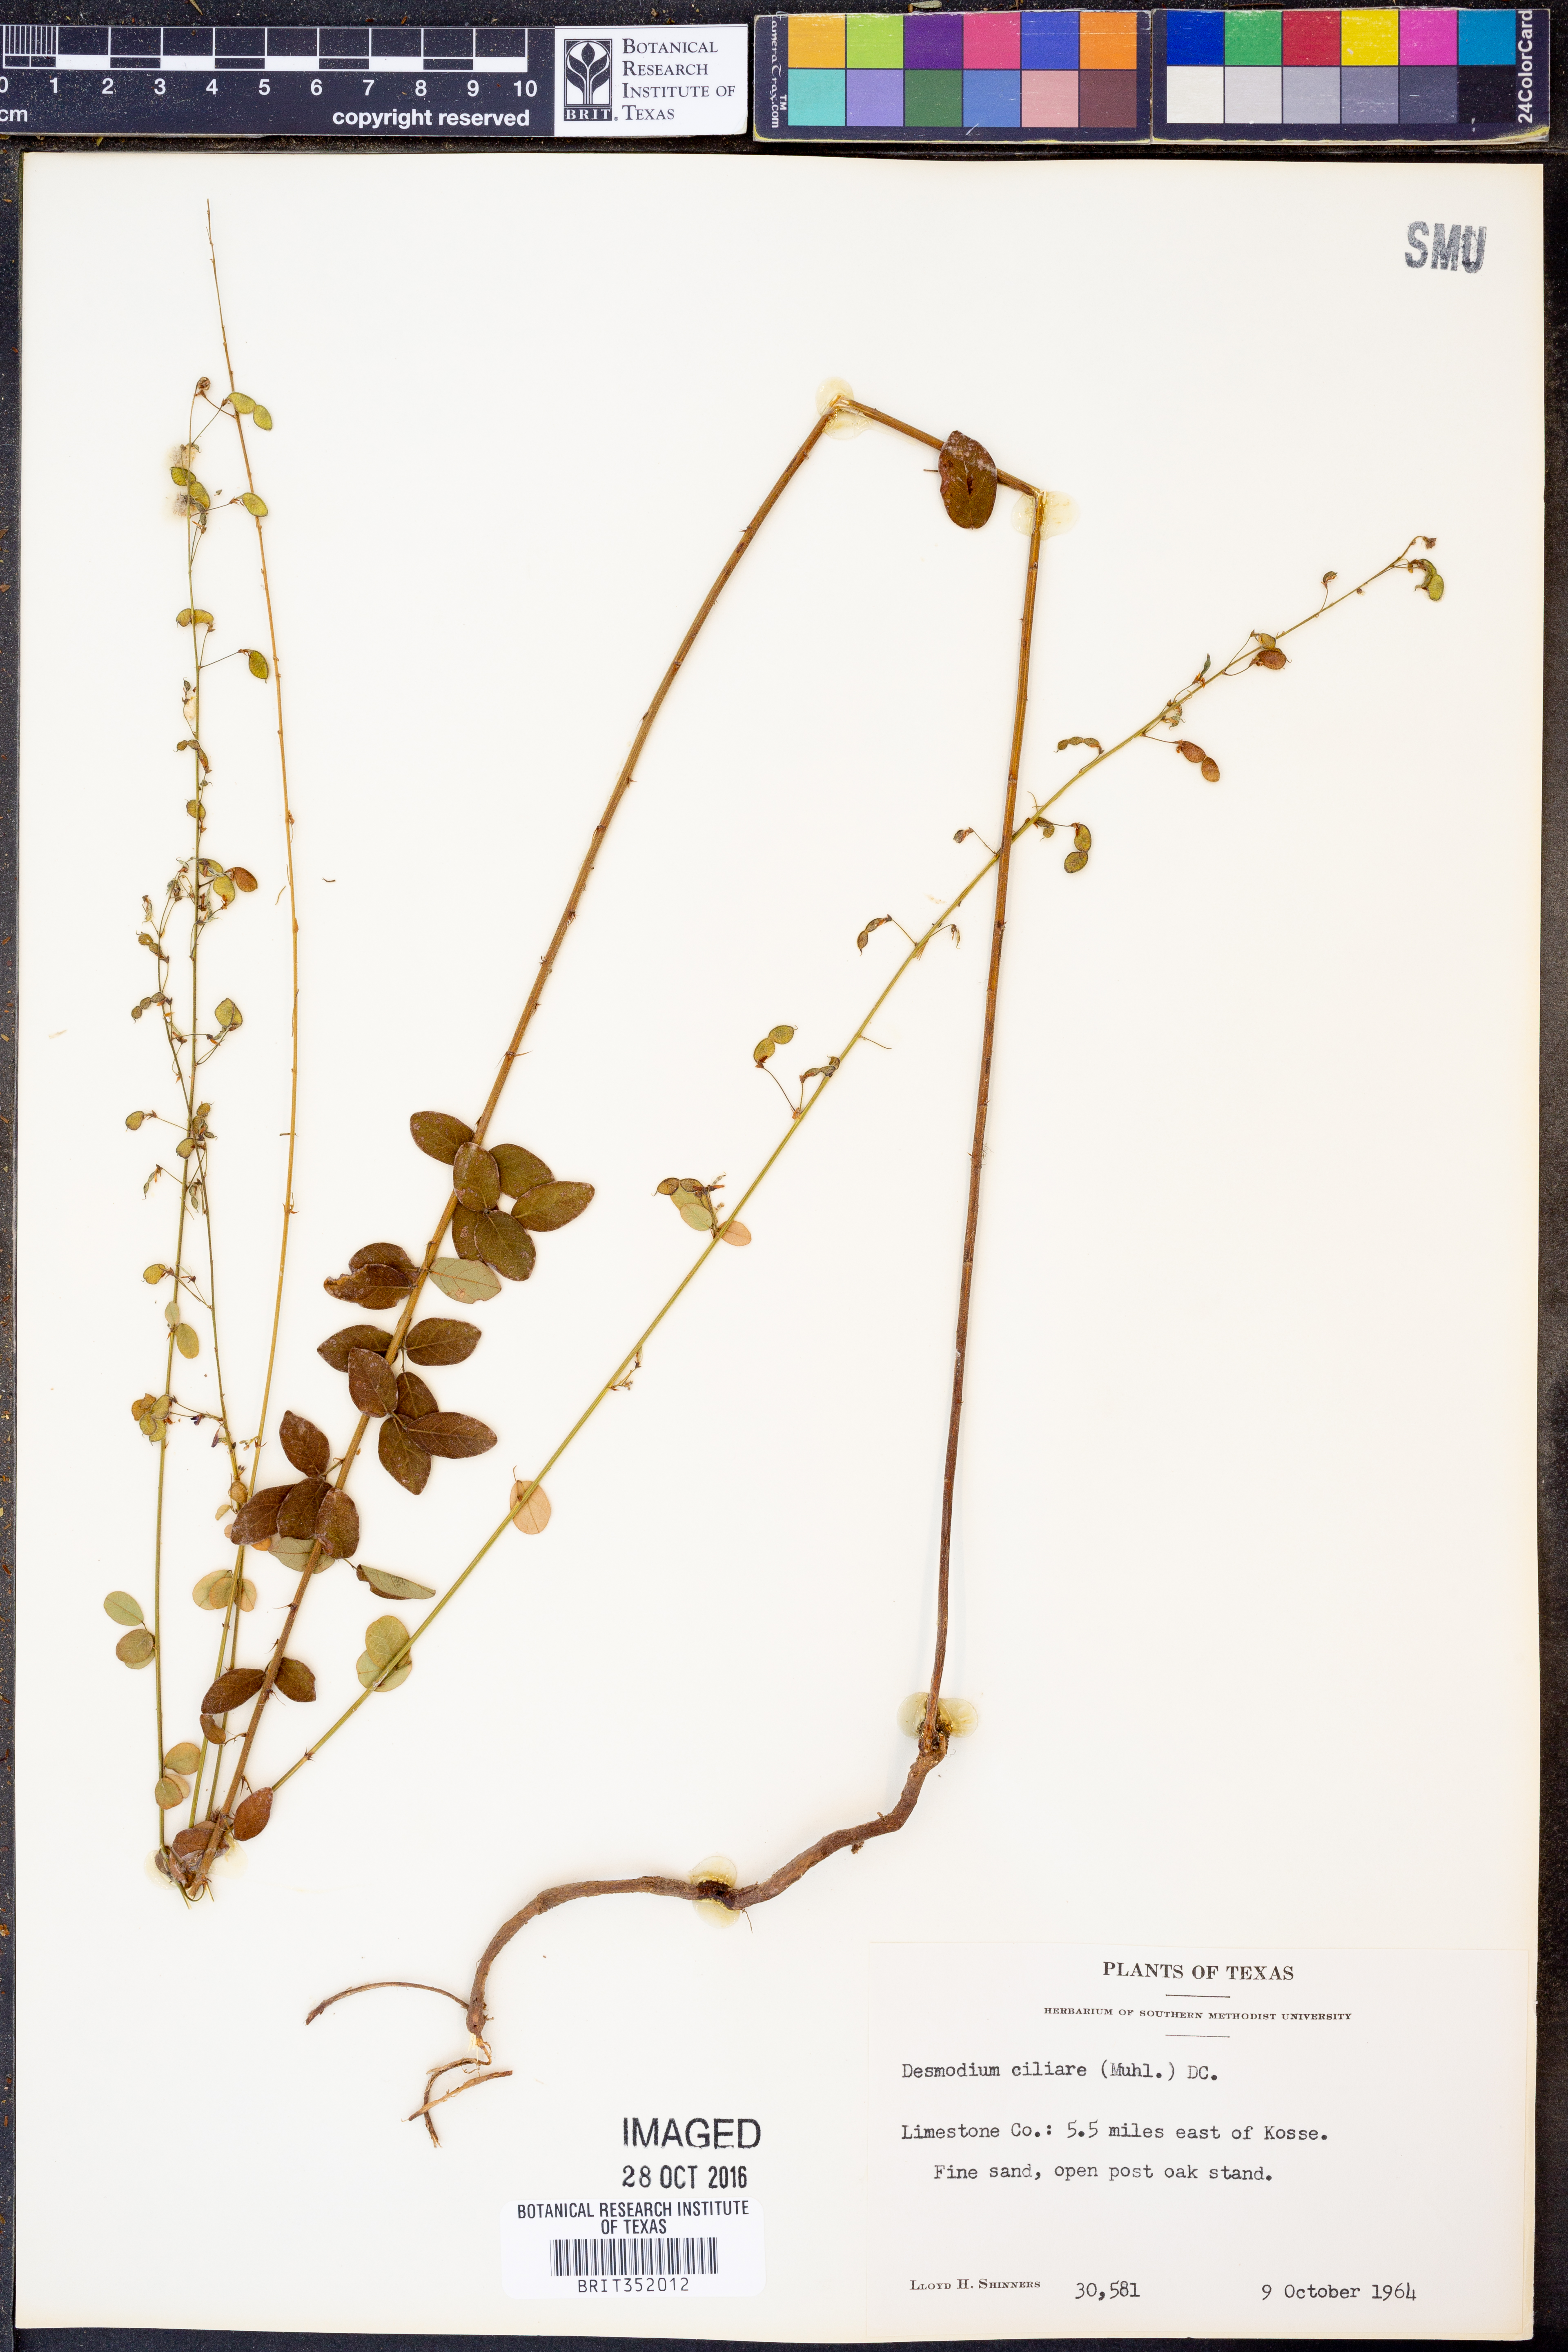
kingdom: Plantae
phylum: Tracheophyta
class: Magnoliopsida
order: Fabales
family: Fabaceae
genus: Desmodium
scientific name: Desmodium ciliare
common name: Hairy small-leaf ticktrefoil
